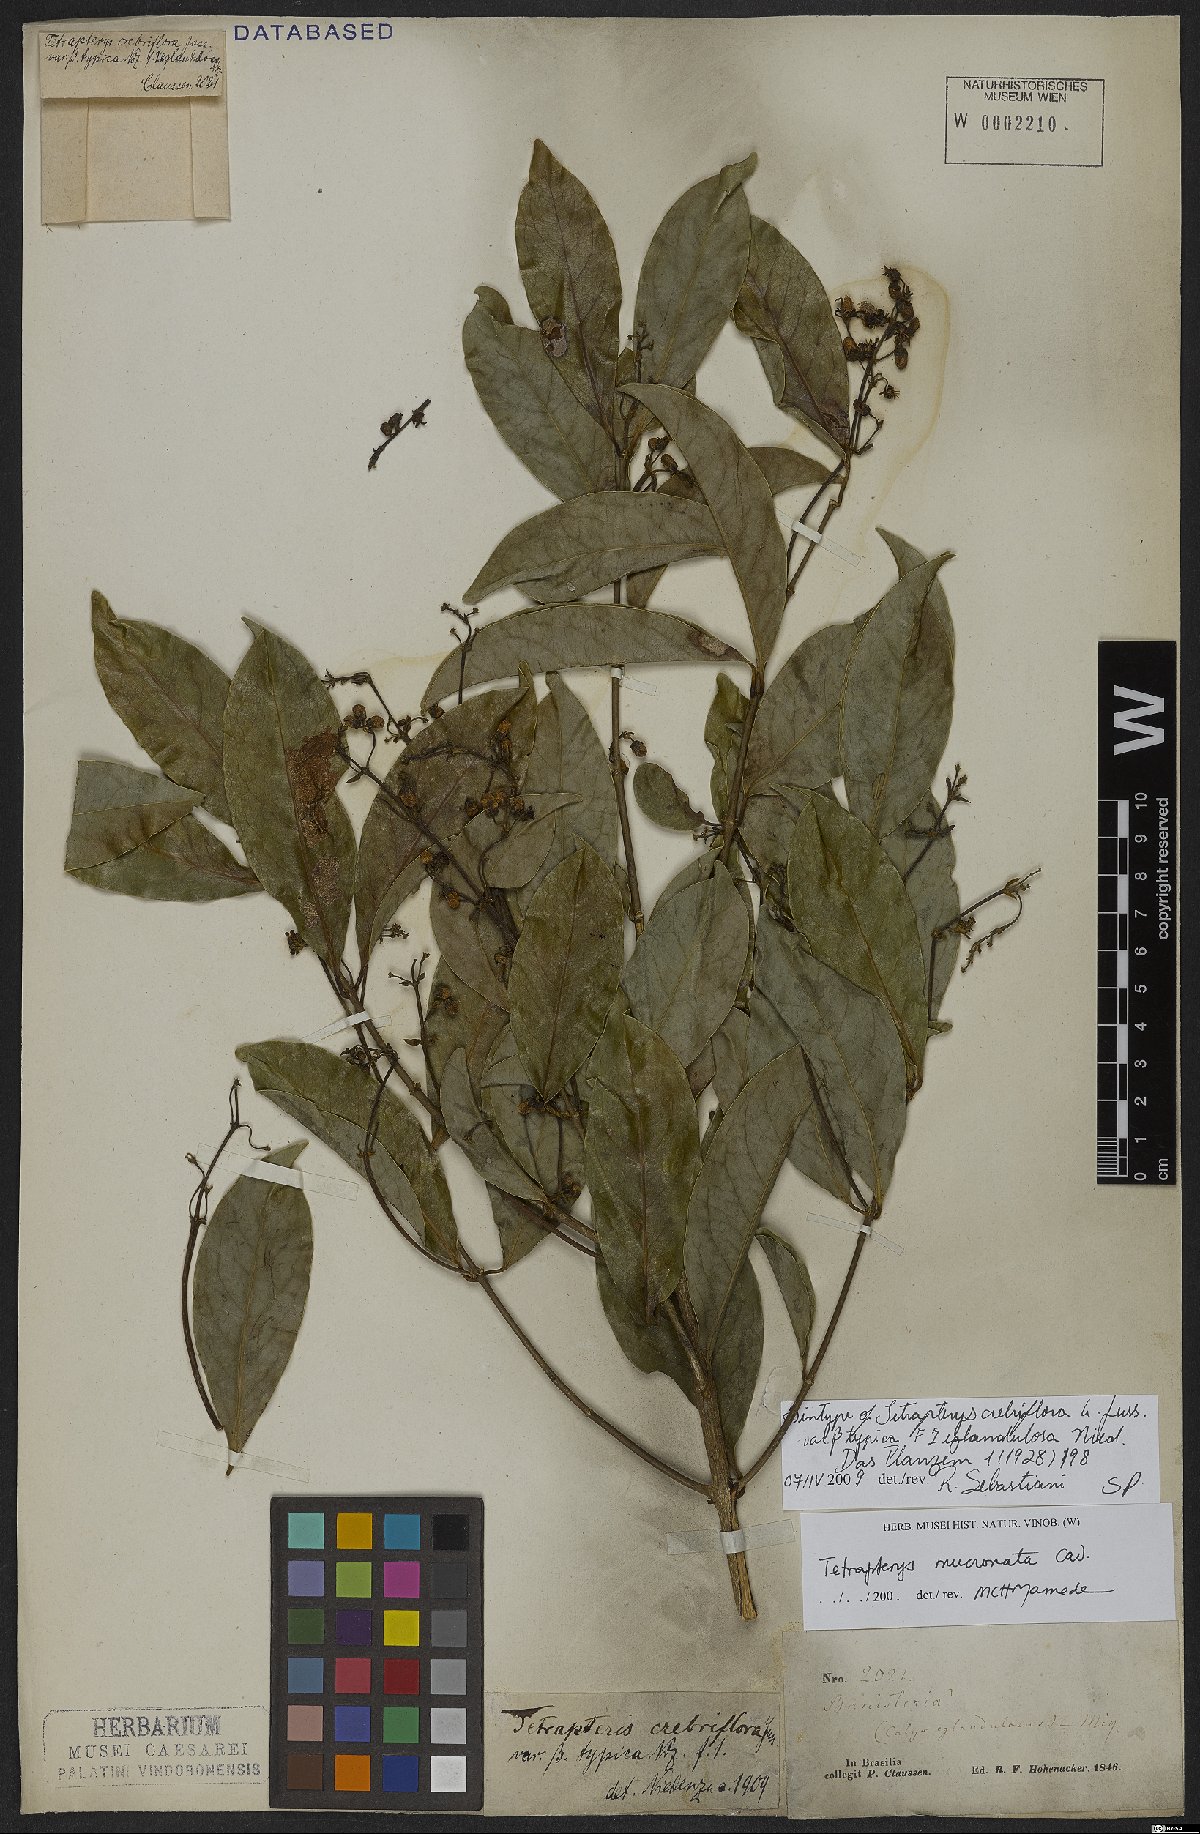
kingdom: Plantae
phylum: Tracheophyta
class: Magnoliopsida
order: Malpighiales
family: Malpighiaceae
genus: Tetrapterys
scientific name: Tetrapterys mucronata
